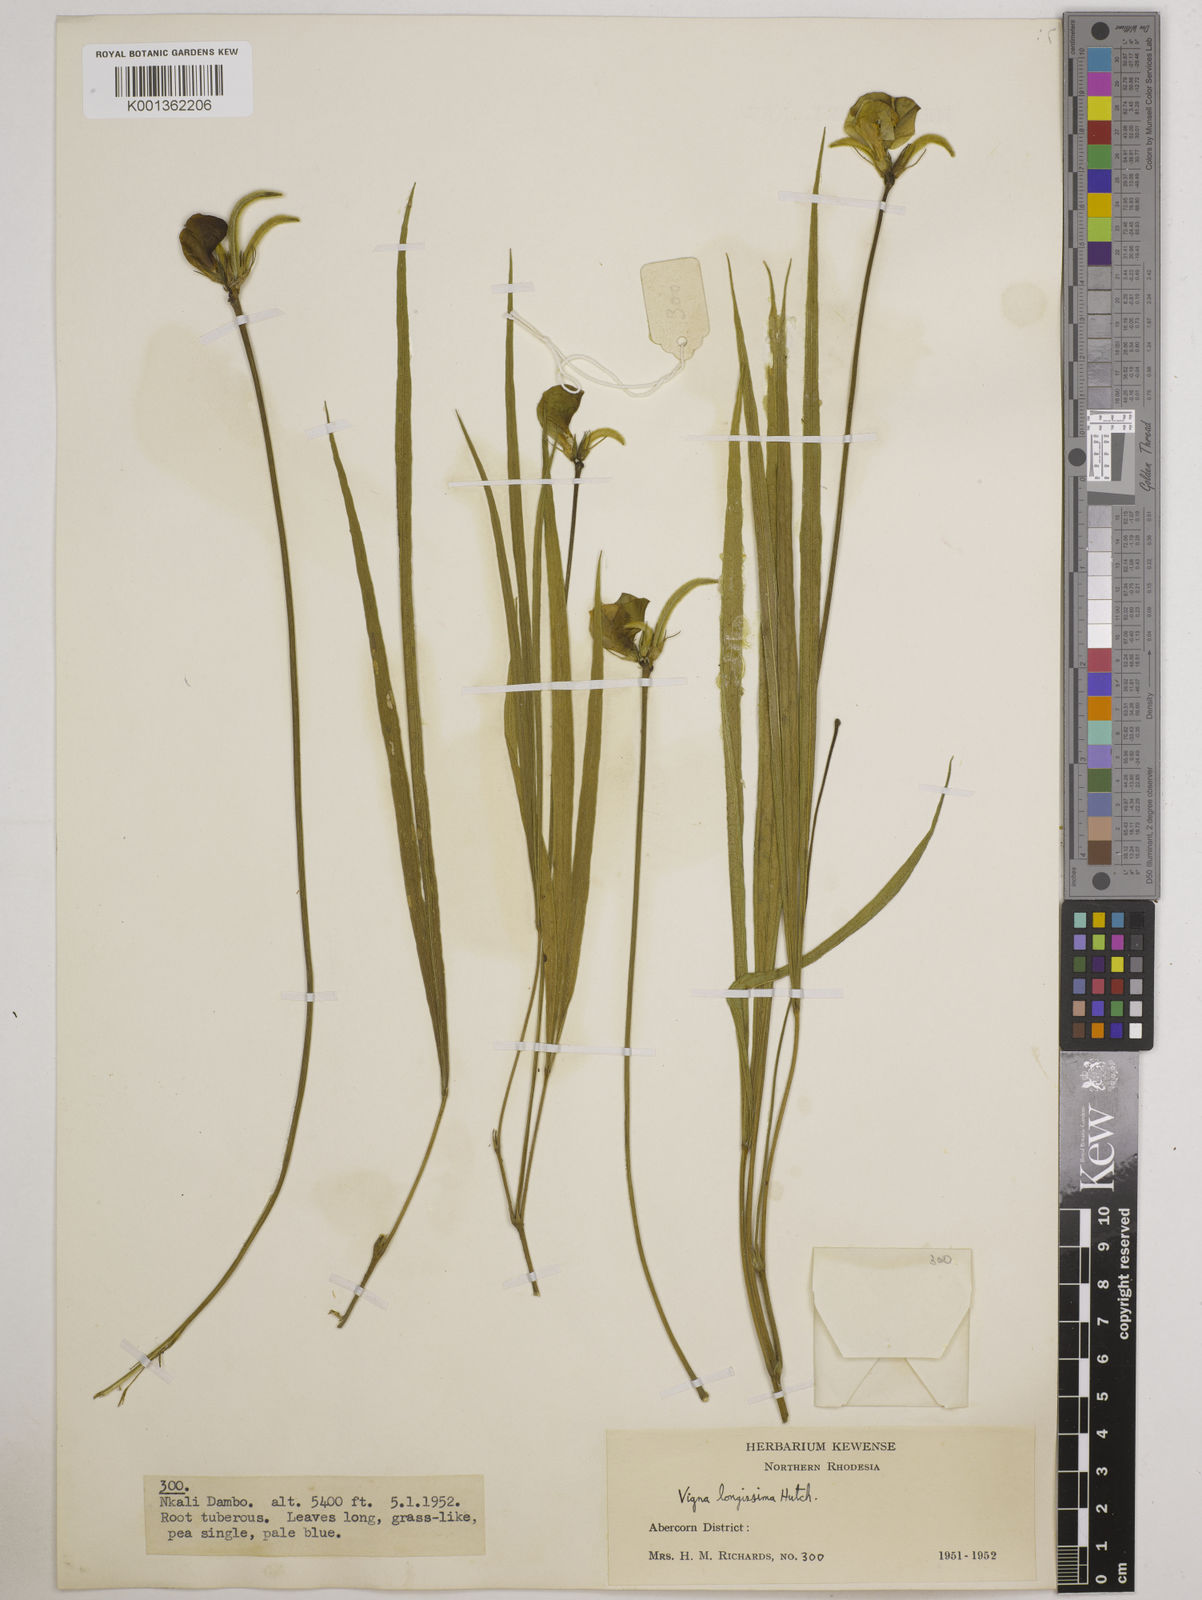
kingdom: Plantae
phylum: Tracheophyta
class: Magnoliopsida
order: Fabales
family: Fabaceae
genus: Vigna
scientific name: Vigna longissima
